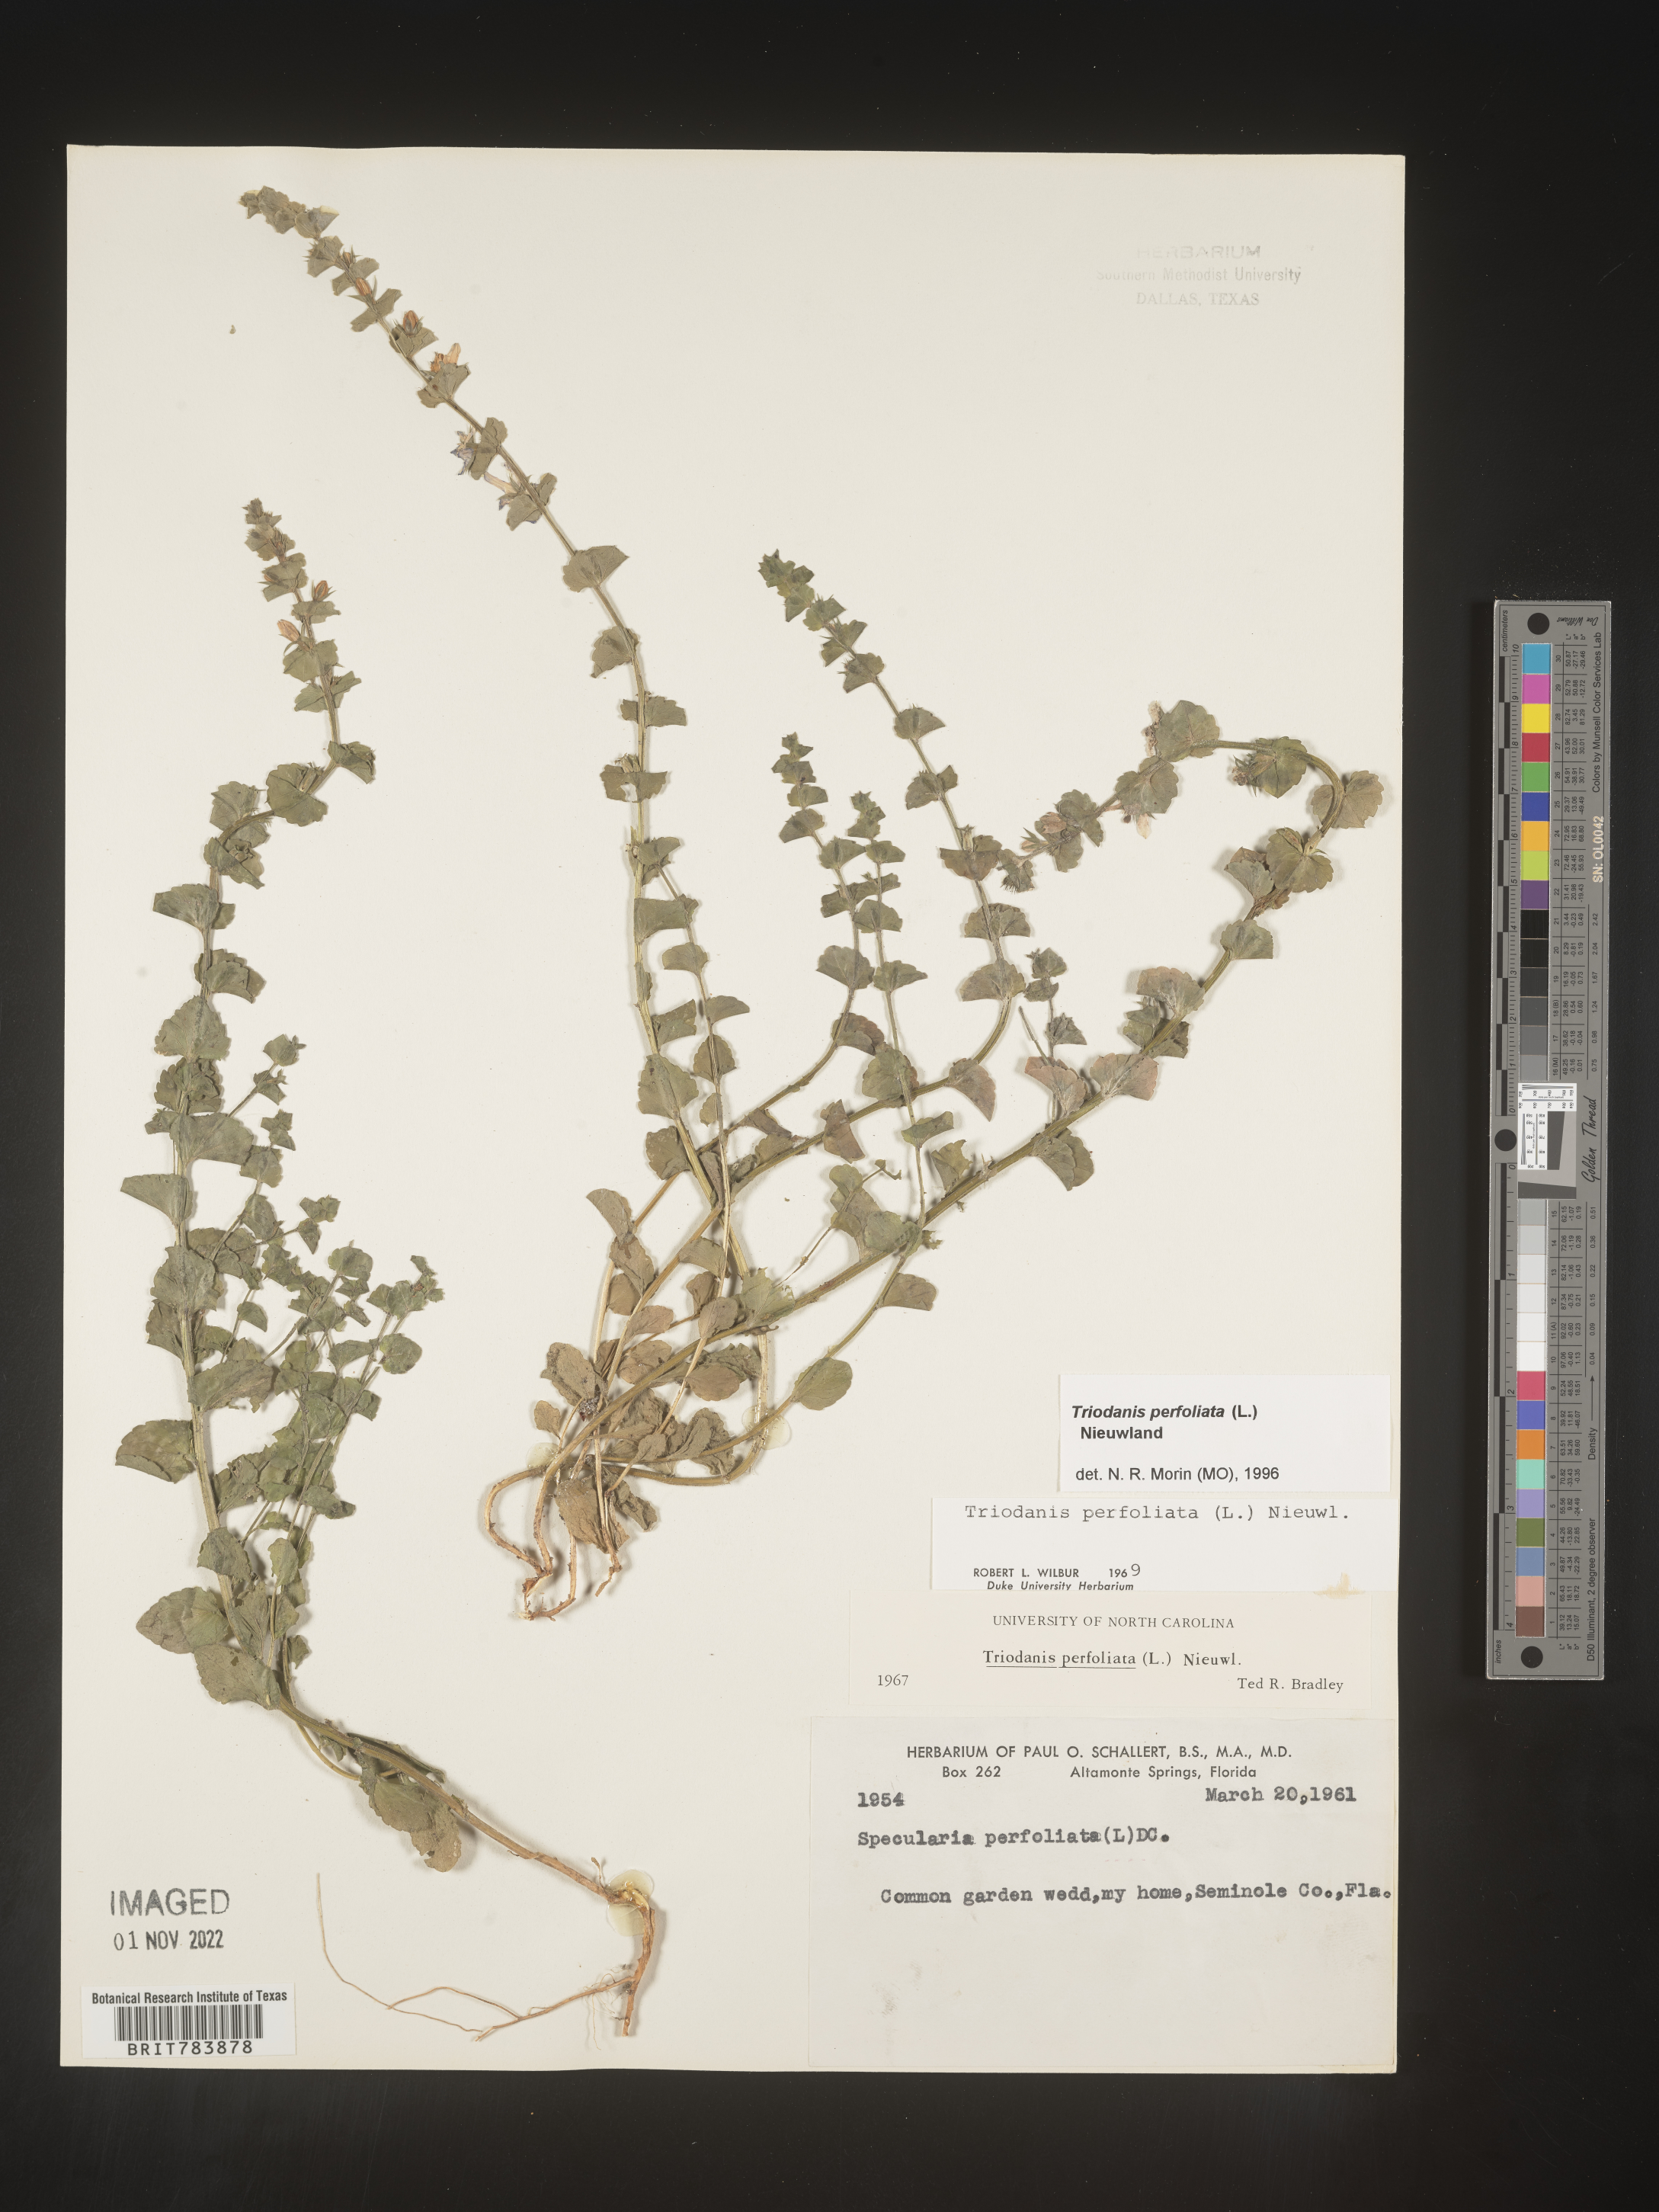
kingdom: Plantae
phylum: Tracheophyta
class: Magnoliopsida
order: Asterales
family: Campanulaceae
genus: Triodanis
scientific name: Triodanis perfoliata
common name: Clasping venus' looking-glass
